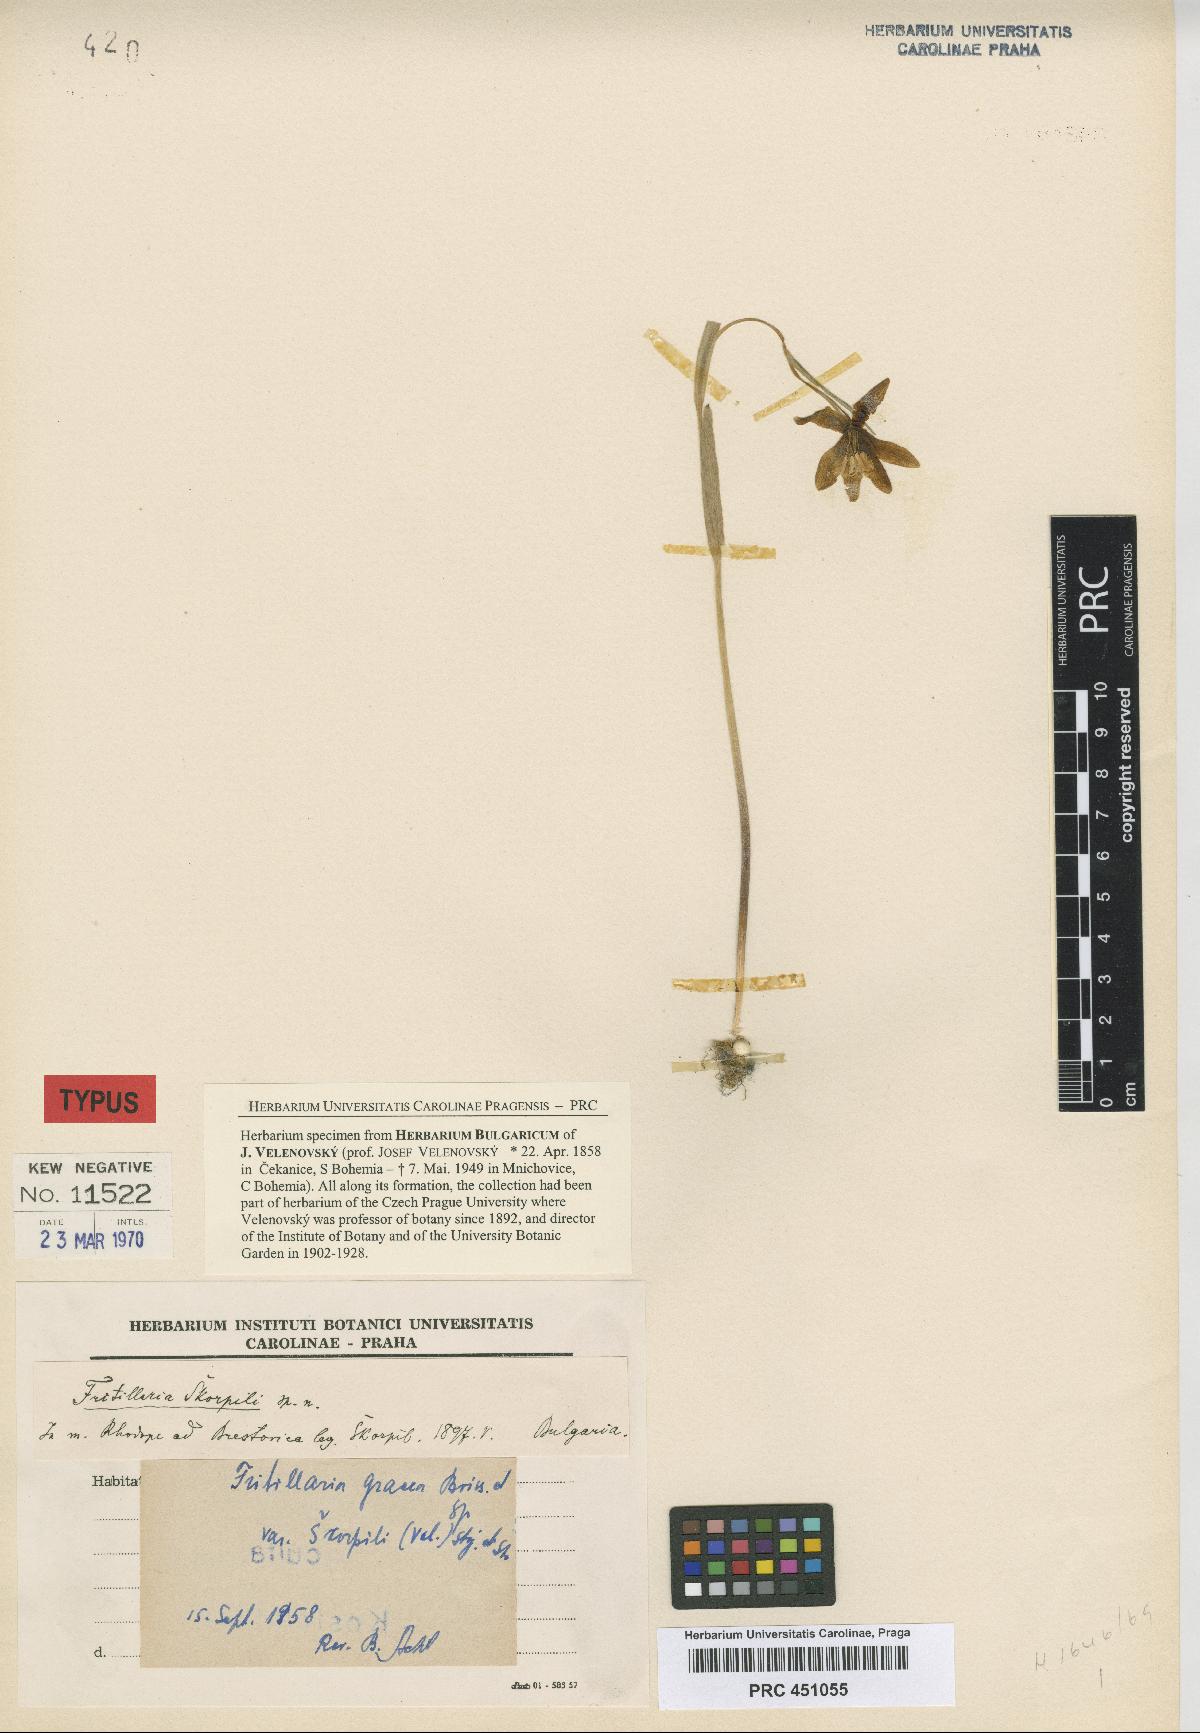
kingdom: Plantae
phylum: Tracheophyta
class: Liliopsida
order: Liliales
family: Liliaceae
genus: Fritillaria
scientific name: Fritillaria skorpili
